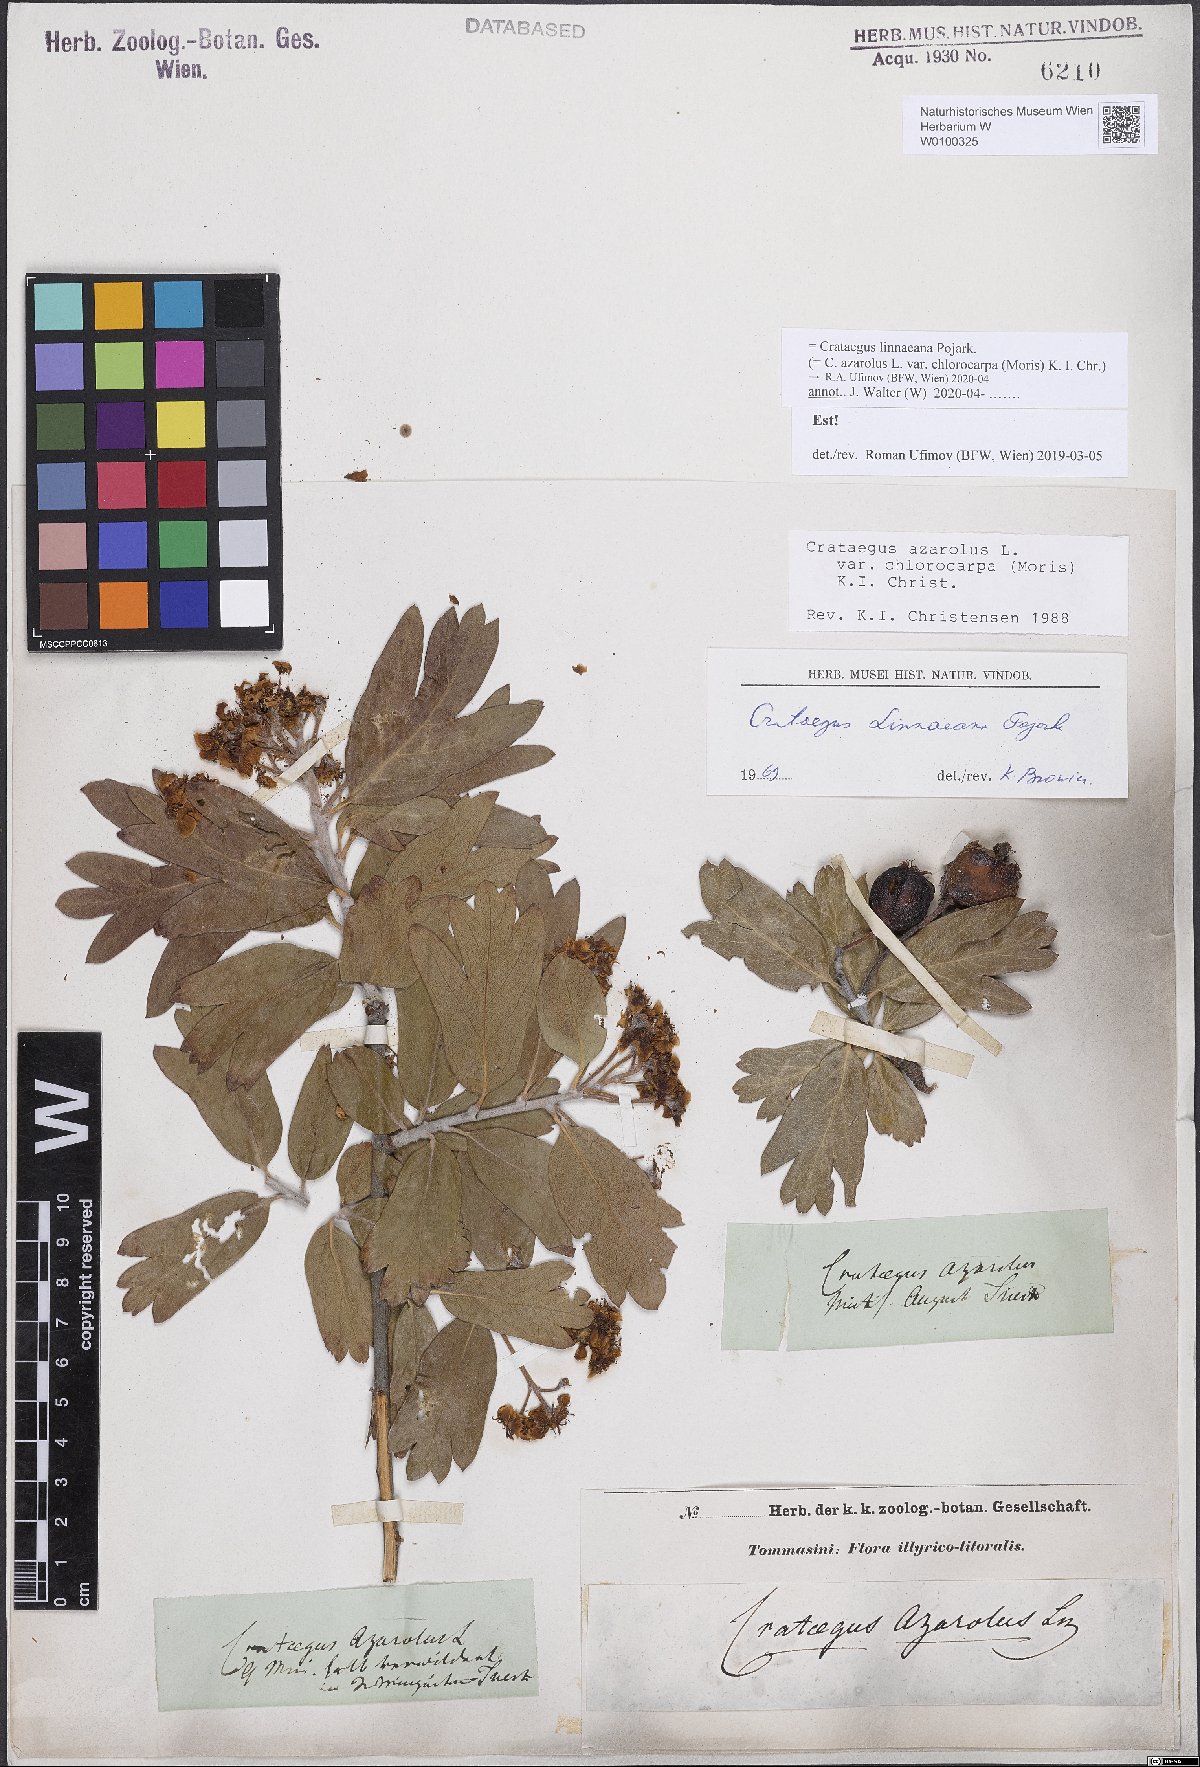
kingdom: Plantae
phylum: Tracheophyta
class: Magnoliopsida
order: Rosales
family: Rosaceae
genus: Crataegus
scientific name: Crataegus azarolus
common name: Azarole
